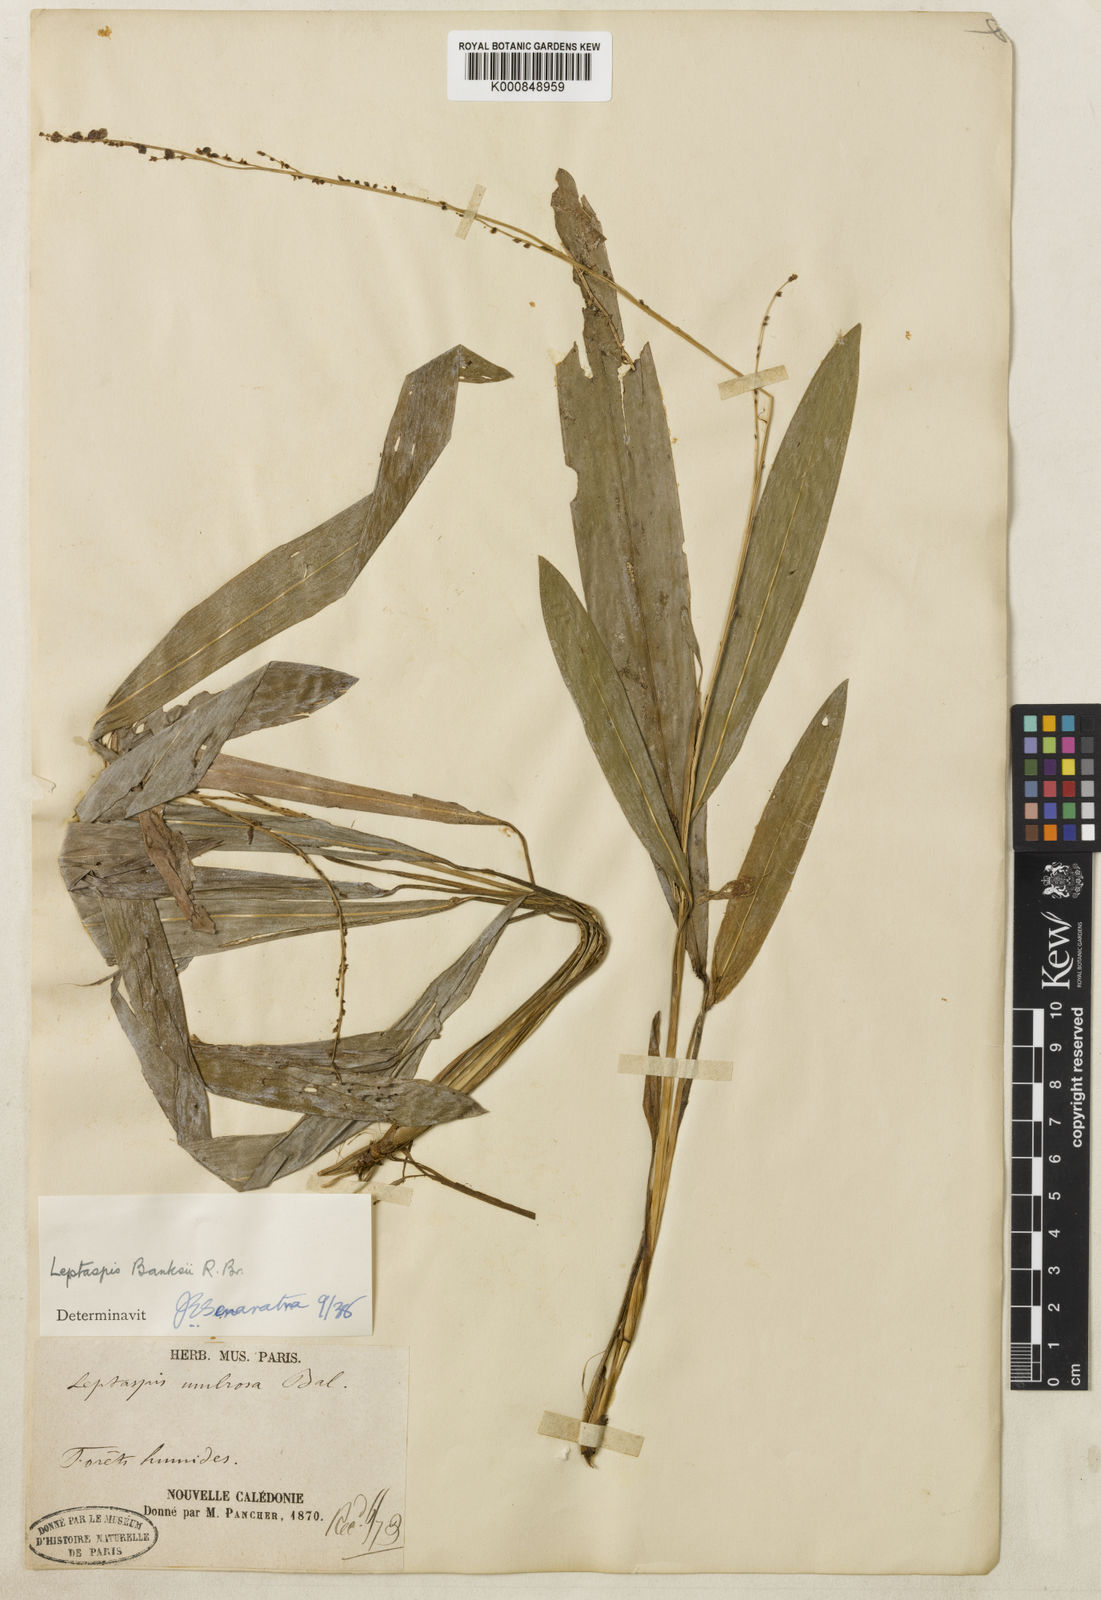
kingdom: Plantae
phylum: Tracheophyta
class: Liliopsida
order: Poales
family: Poaceae
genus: Leptaspis
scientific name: Leptaspis banksii
